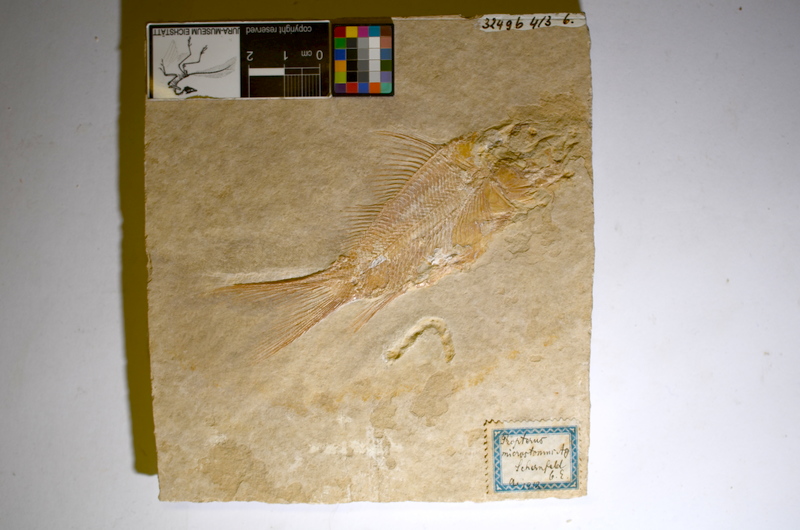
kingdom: Animalia
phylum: Chordata
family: Macrosemiidae
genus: Propterus
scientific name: Propterus elongatus
